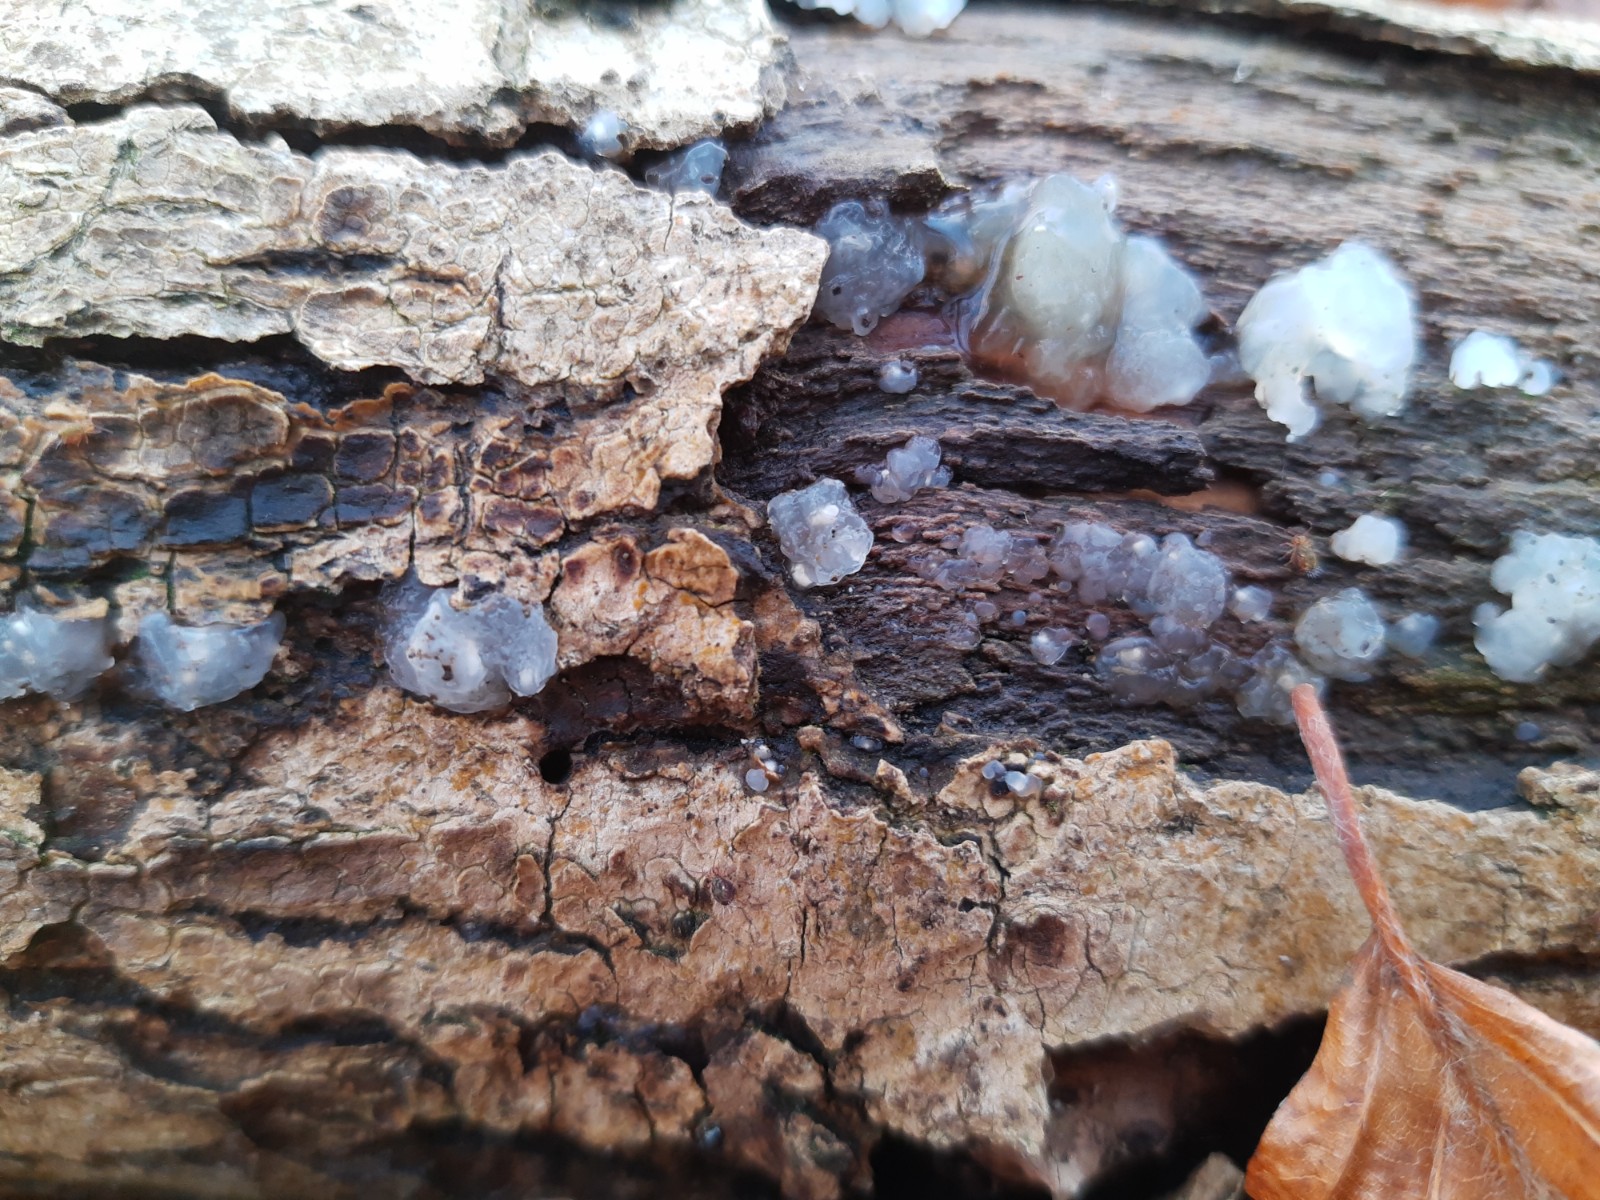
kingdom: Fungi
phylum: Basidiomycota
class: Agaricomycetes
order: Auriculariales
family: Hyaloriaceae
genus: Myxarium
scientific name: Myxarium nucleatum
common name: klar bævretop
